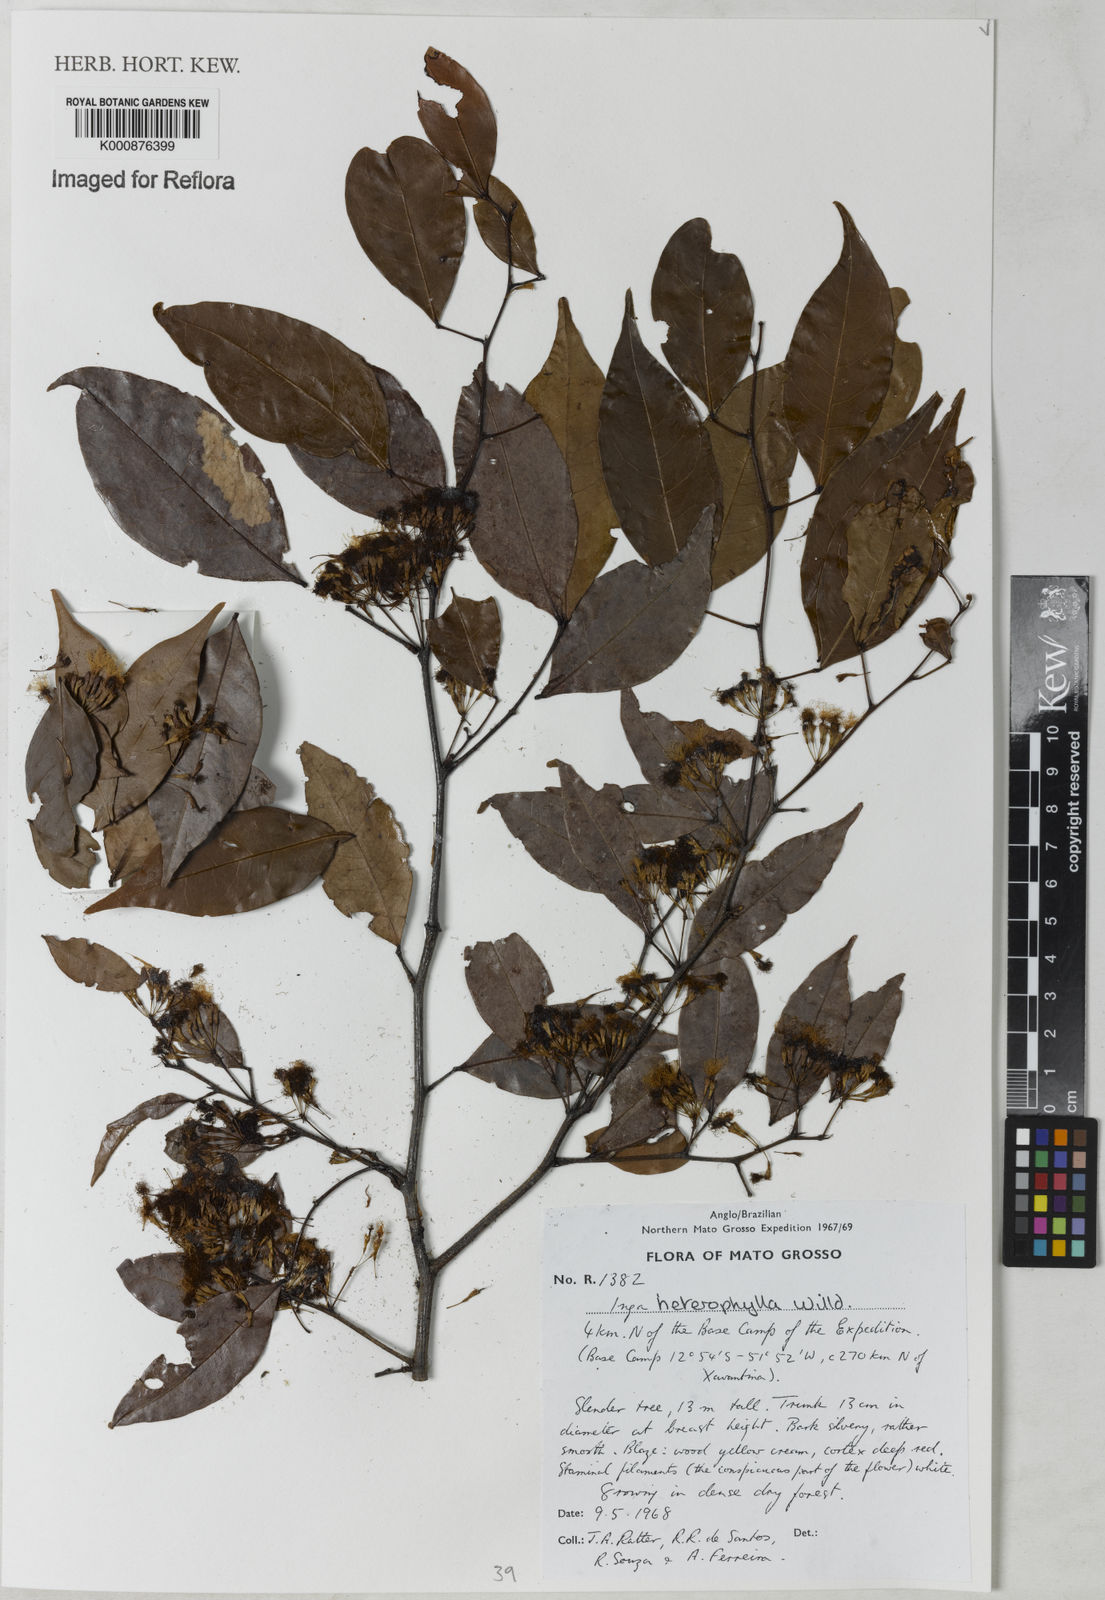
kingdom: Plantae
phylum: Tracheophyta
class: Magnoliopsida
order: Fabales
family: Fabaceae
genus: Inga
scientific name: Inga heterophylla
